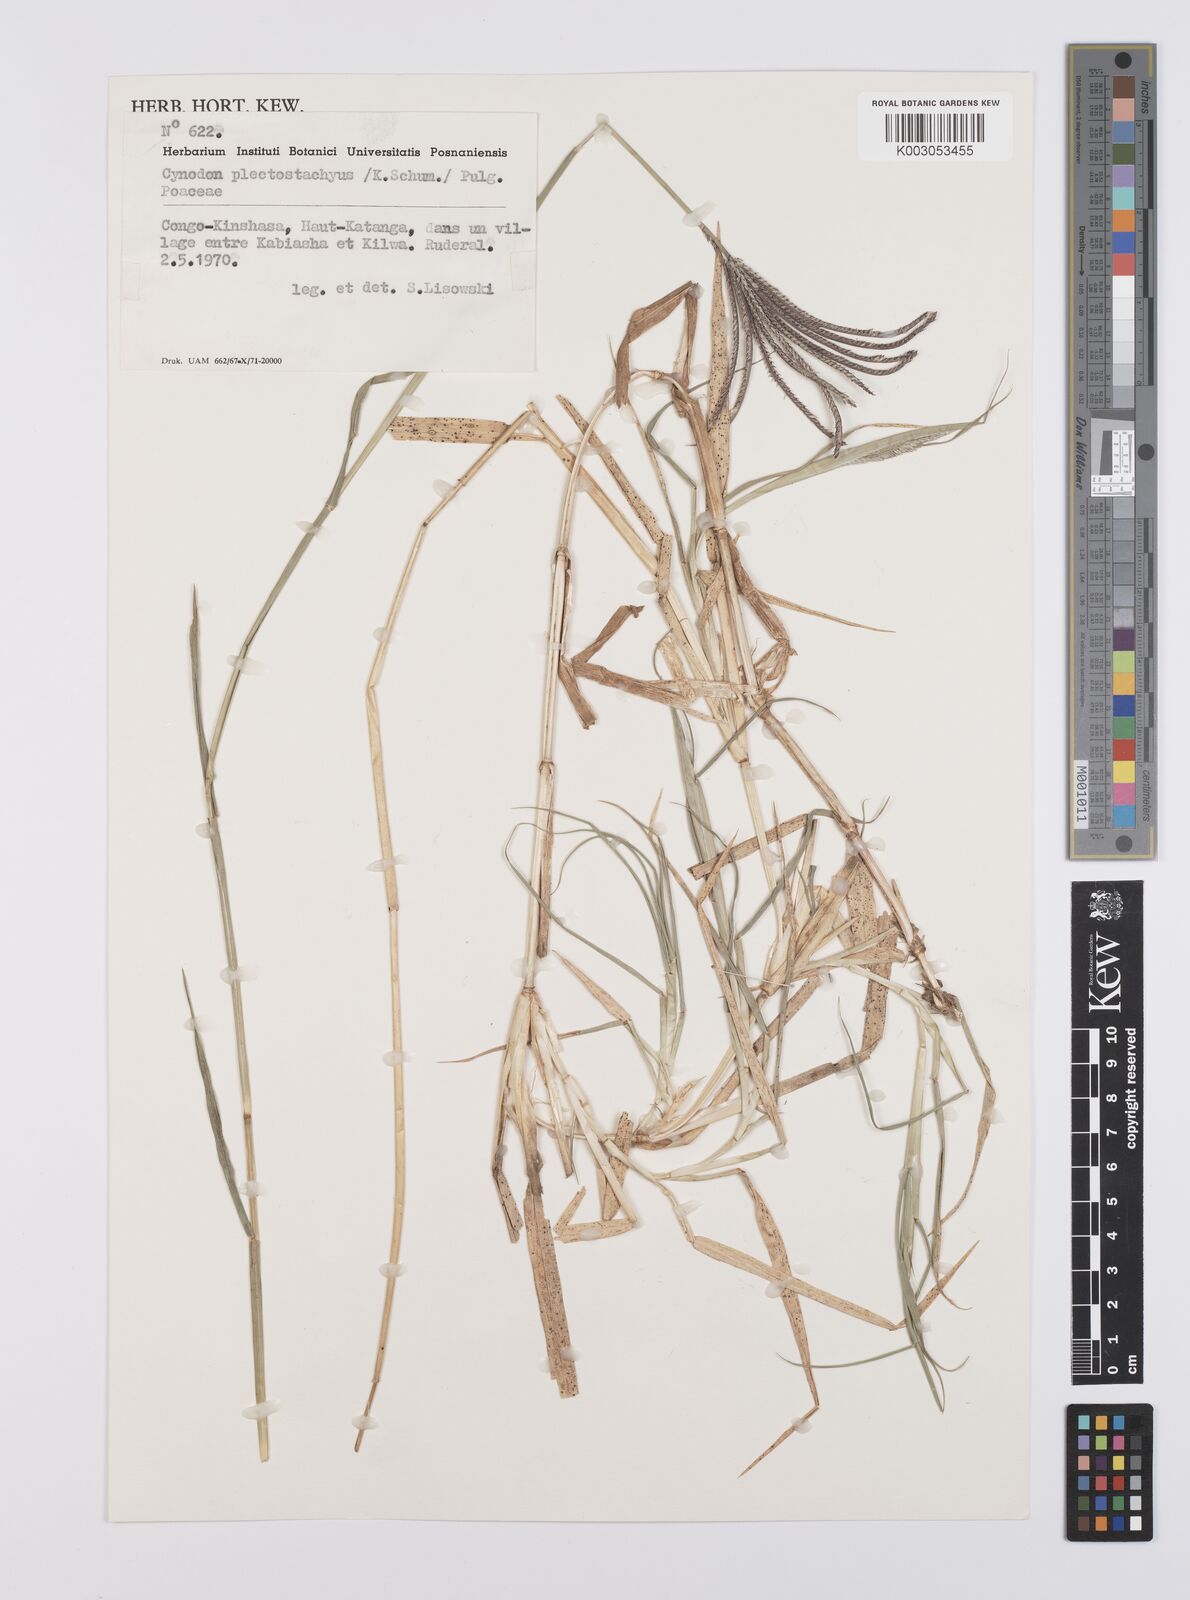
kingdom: Plantae
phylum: Tracheophyta
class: Liliopsida
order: Poales
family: Poaceae
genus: Cynodon
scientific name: Cynodon aethiopicus
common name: Ethiopian dogstooth grass
